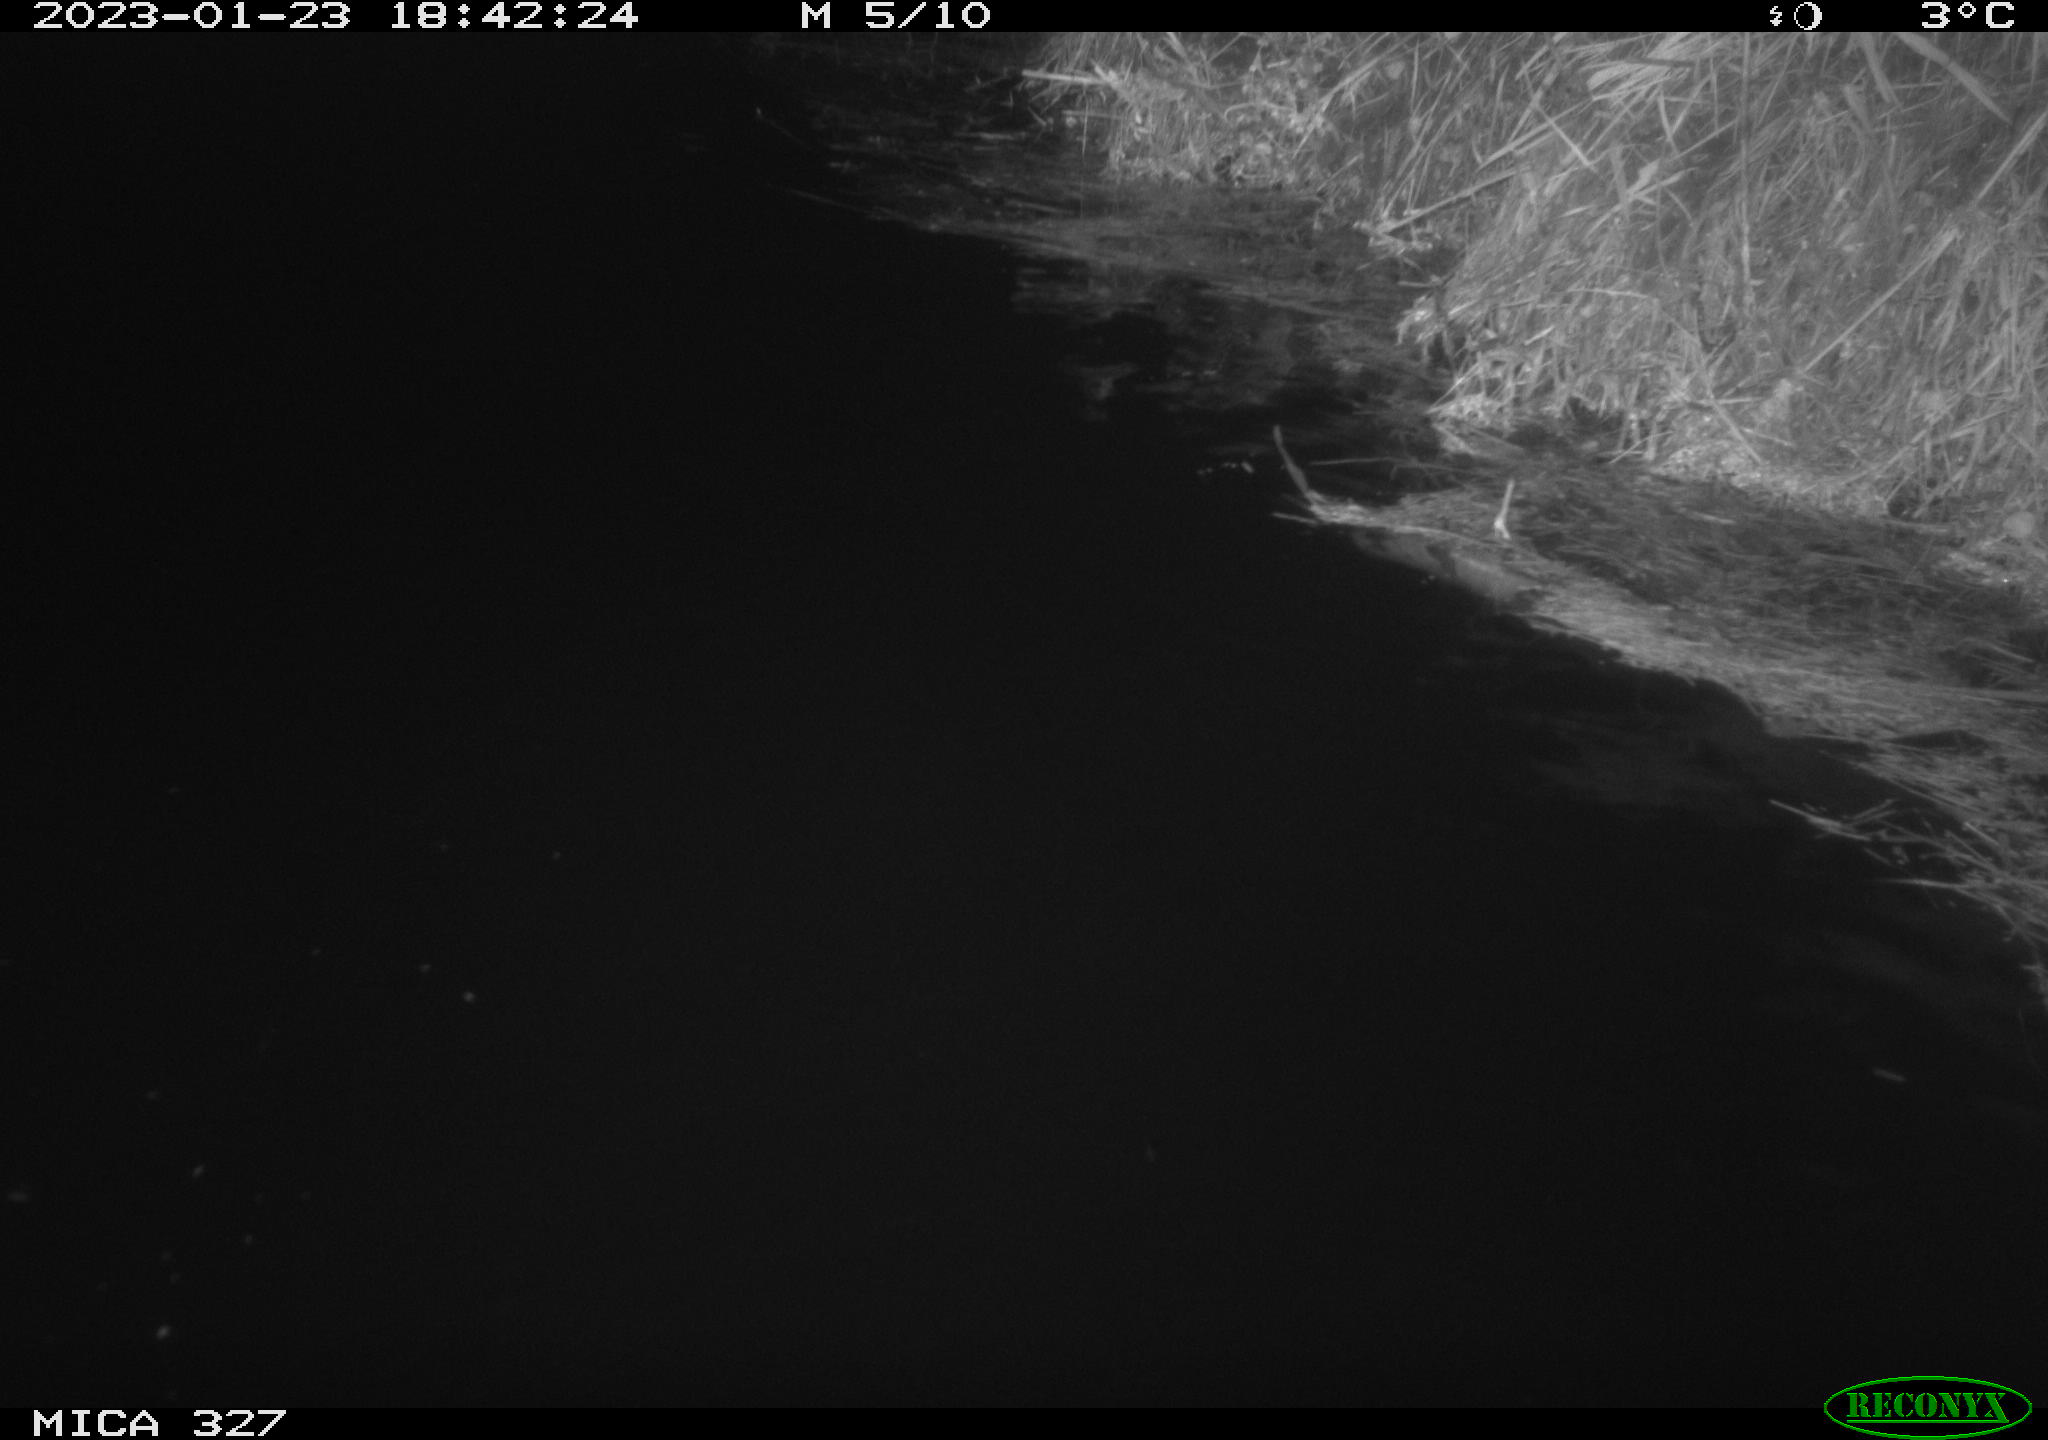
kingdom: Animalia
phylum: Chordata
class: Mammalia
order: Rodentia
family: Cricetidae
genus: Ondatra
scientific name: Ondatra zibethicus
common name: Muskrat
